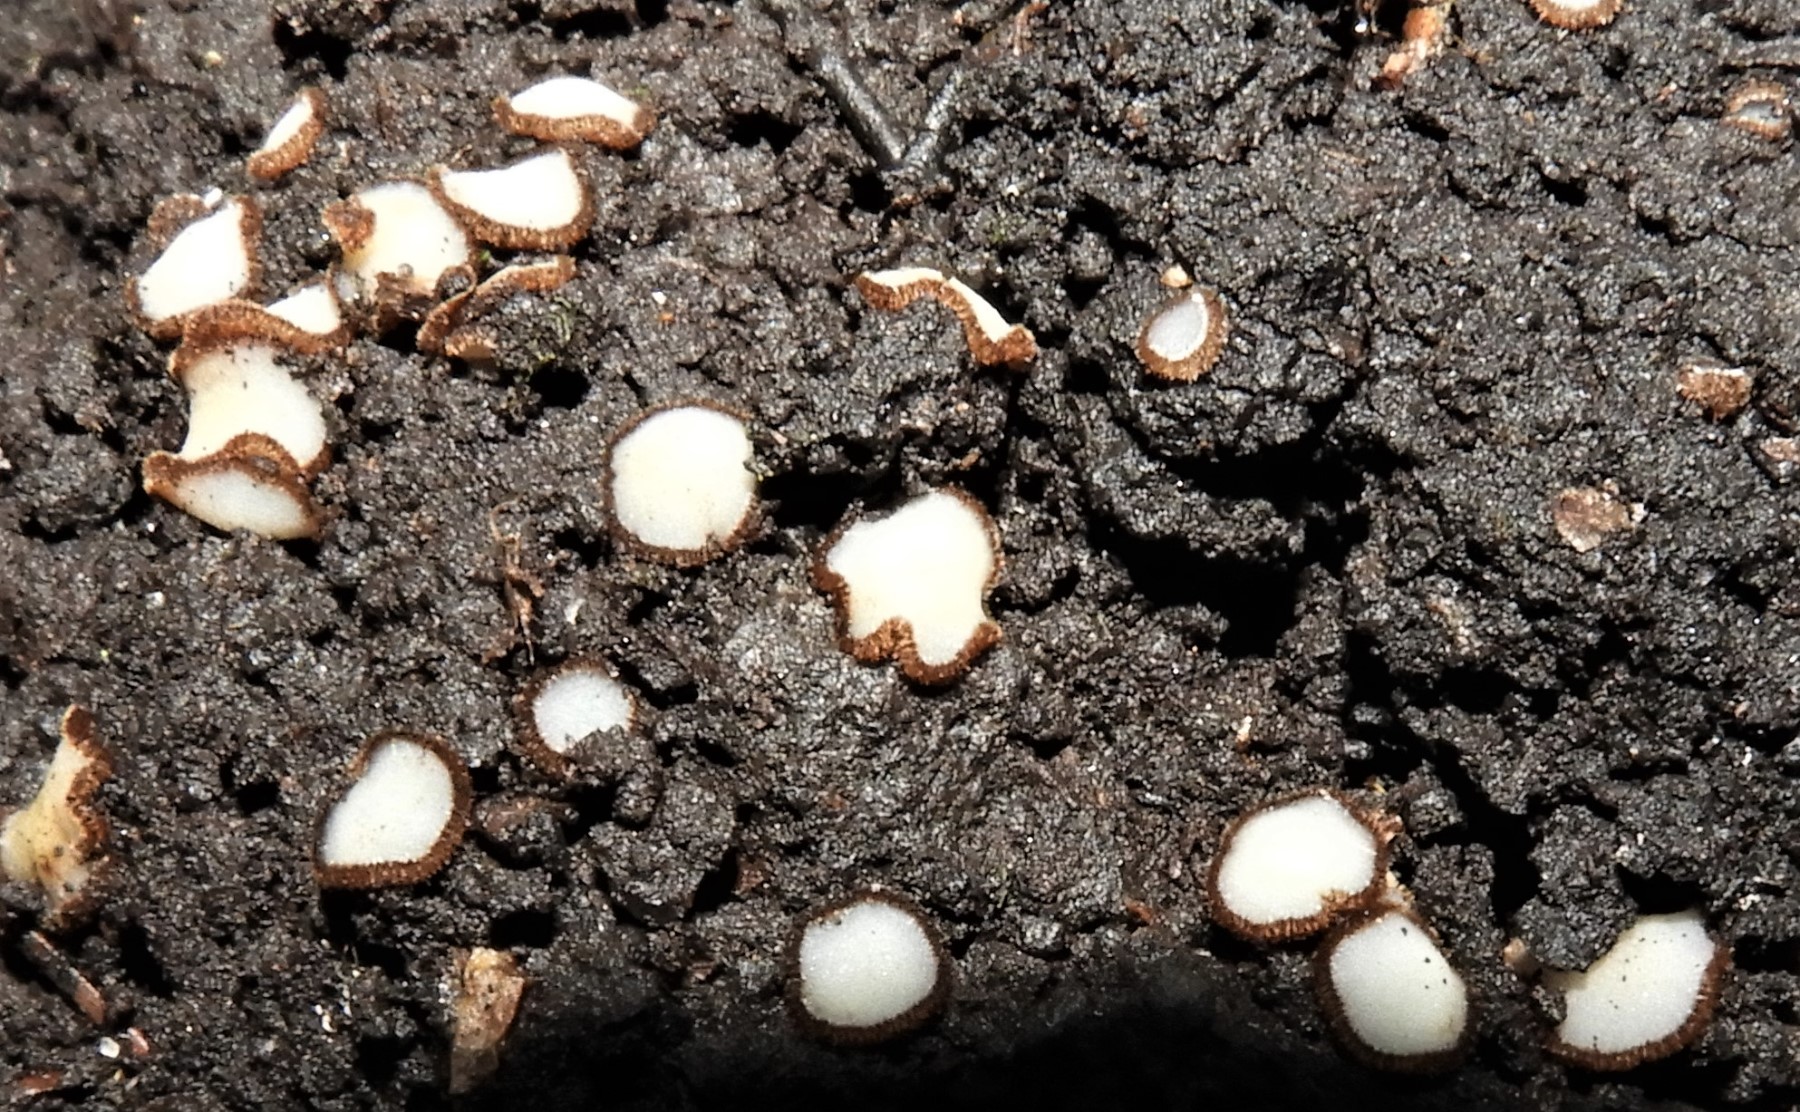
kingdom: Fungi
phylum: Ascomycota
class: Pezizomycetes
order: Pezizales
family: Pyronemataceae
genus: Trichophaea
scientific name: Trichophaea
